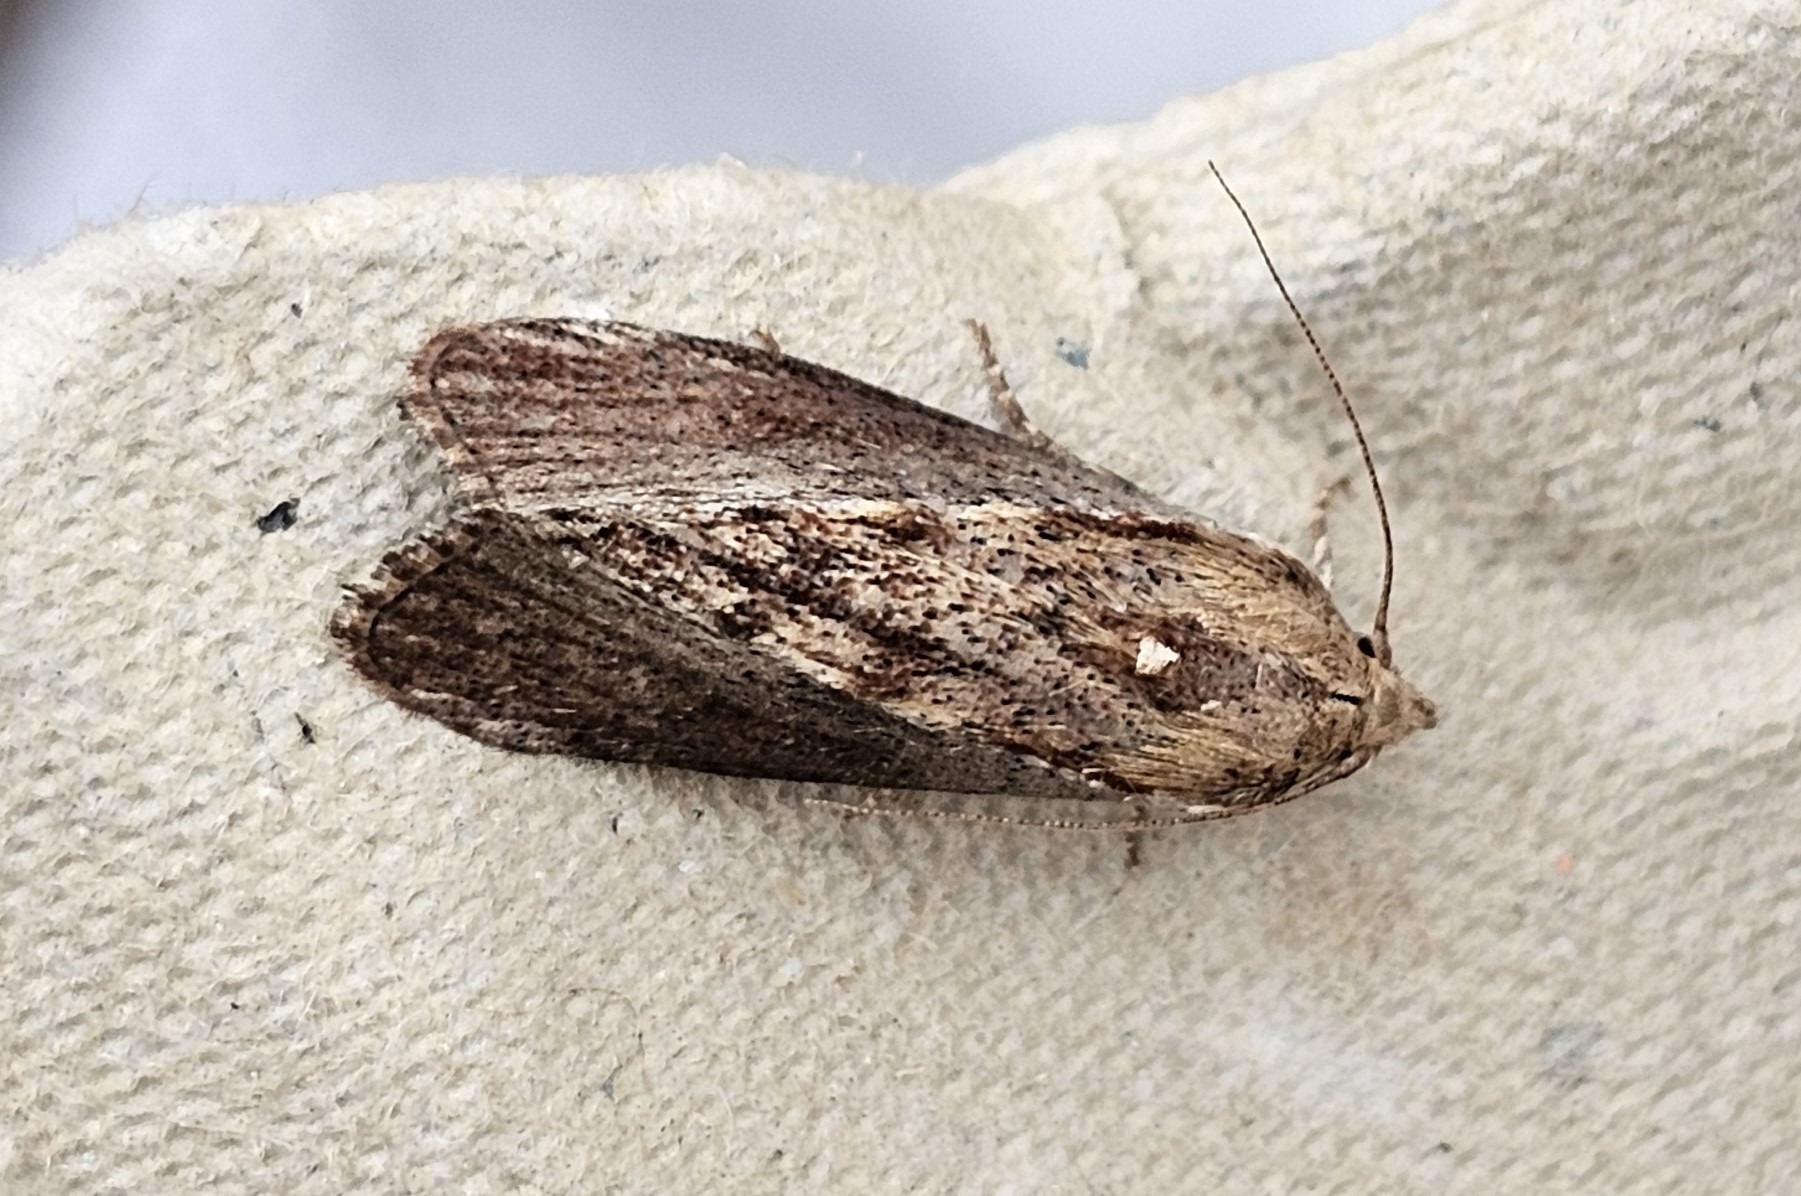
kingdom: Animalia
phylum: Arthropoda
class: Insecta
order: Lepidoptera
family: Pyralidae
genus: Galleria
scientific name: Galleria mellonella
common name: Stort voksmøl
